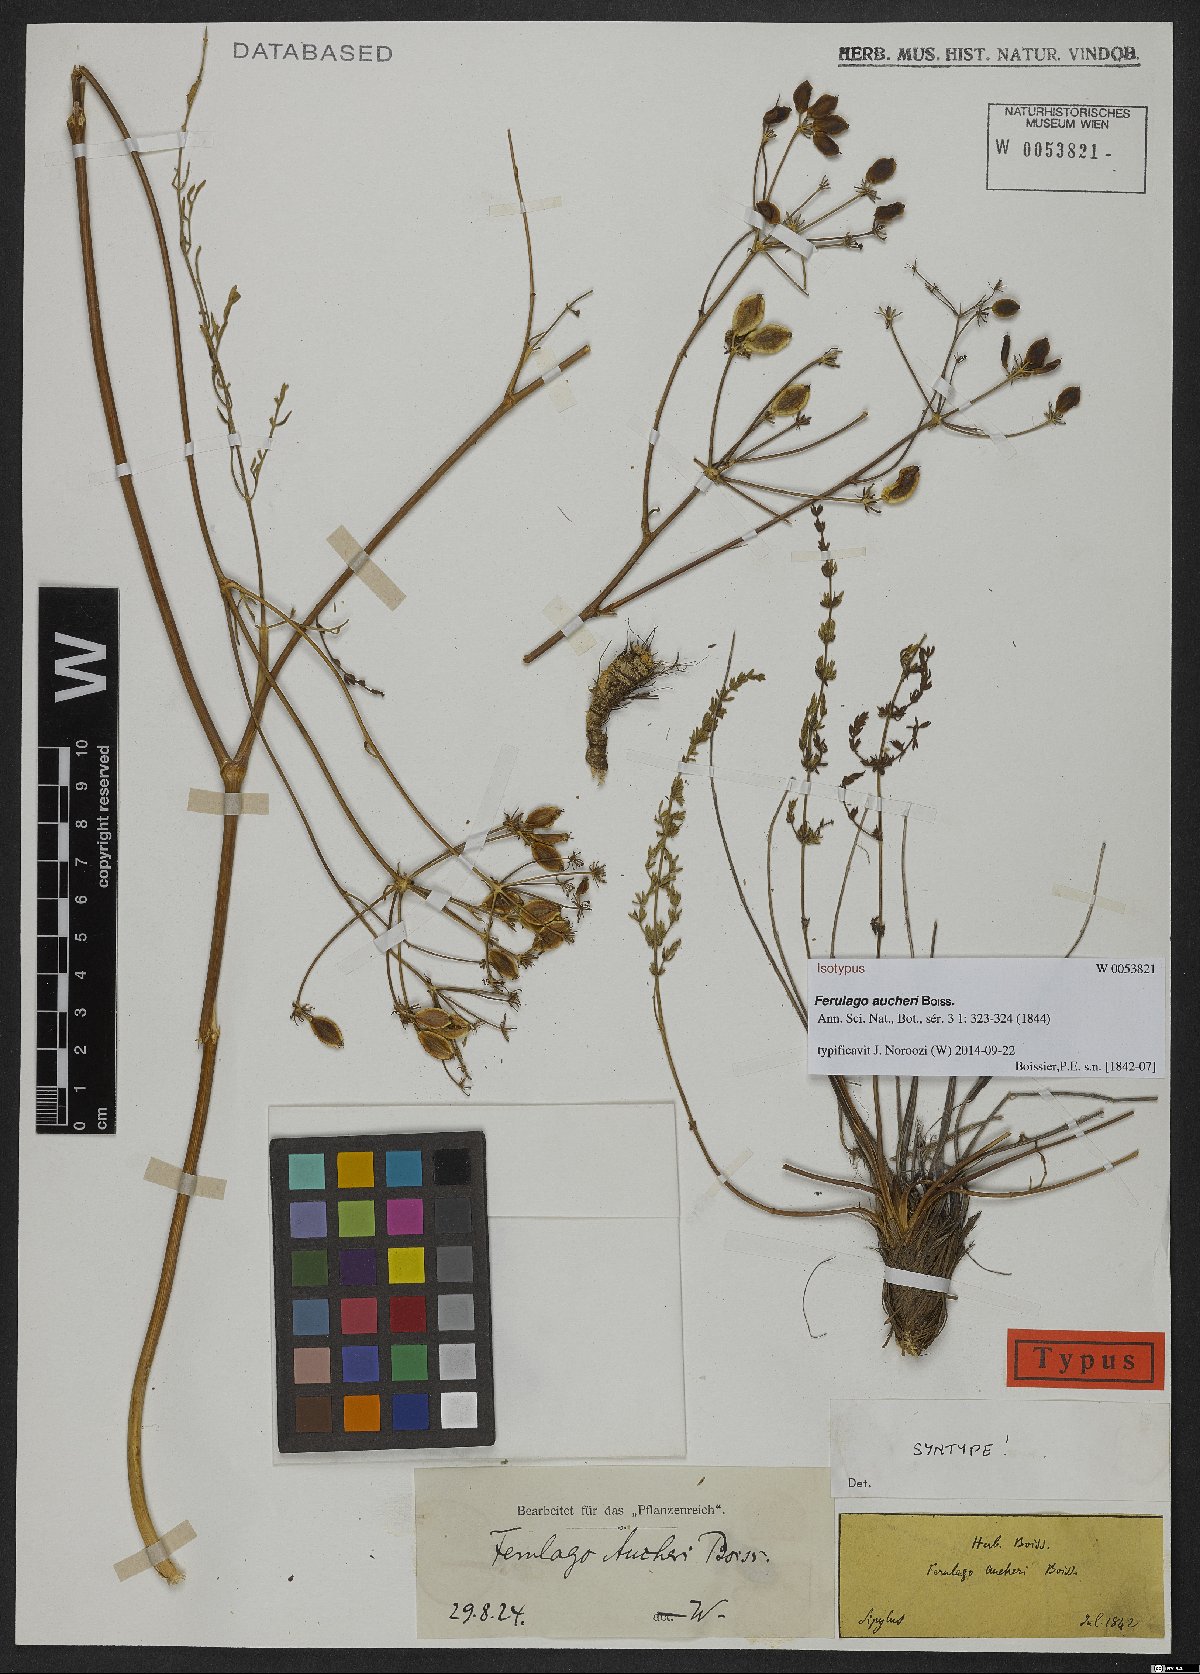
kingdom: Plantae
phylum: Tracheophyta
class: Magnoliopsida
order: Apiales
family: Apiaceae
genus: Ferulago
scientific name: Ferulago aucheri
